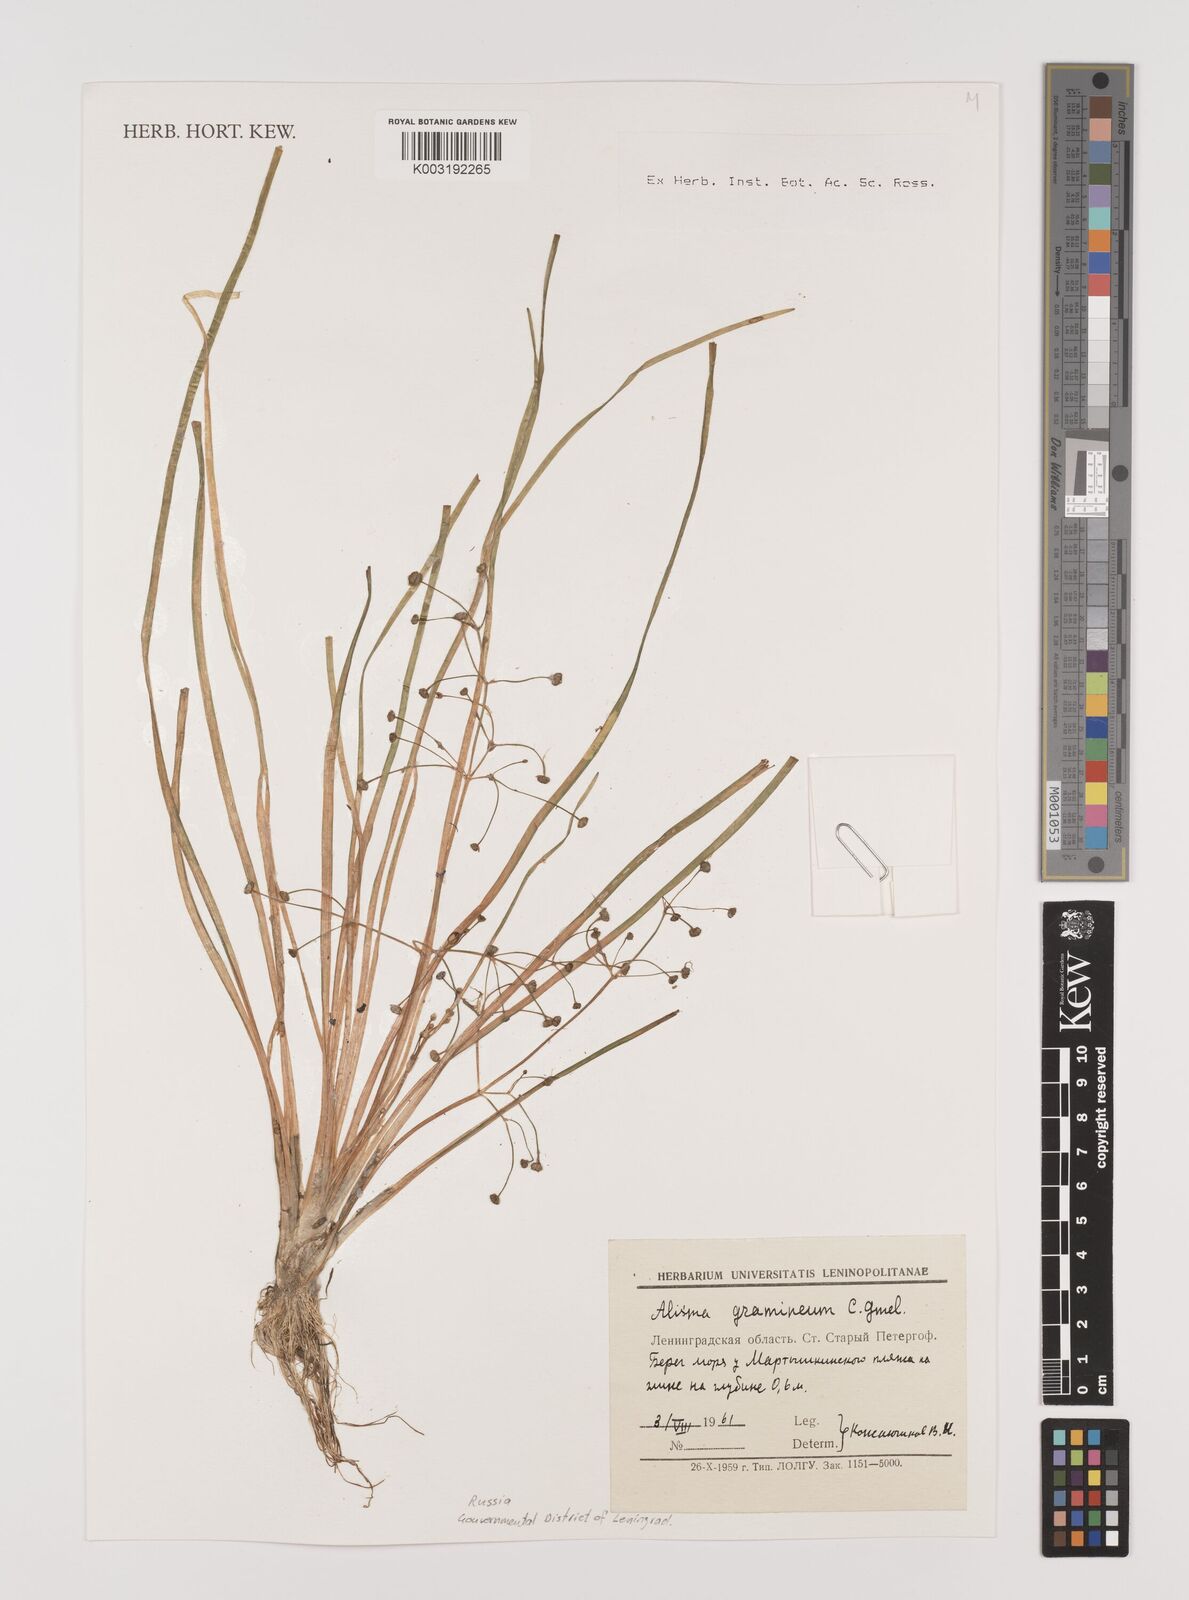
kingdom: Plantae
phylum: Tracheophyta
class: Liliopsida
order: Alismatales
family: Alismataceae
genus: Alisma
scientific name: Alisma gramineum
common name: Ribbon-leaved water-plantain
